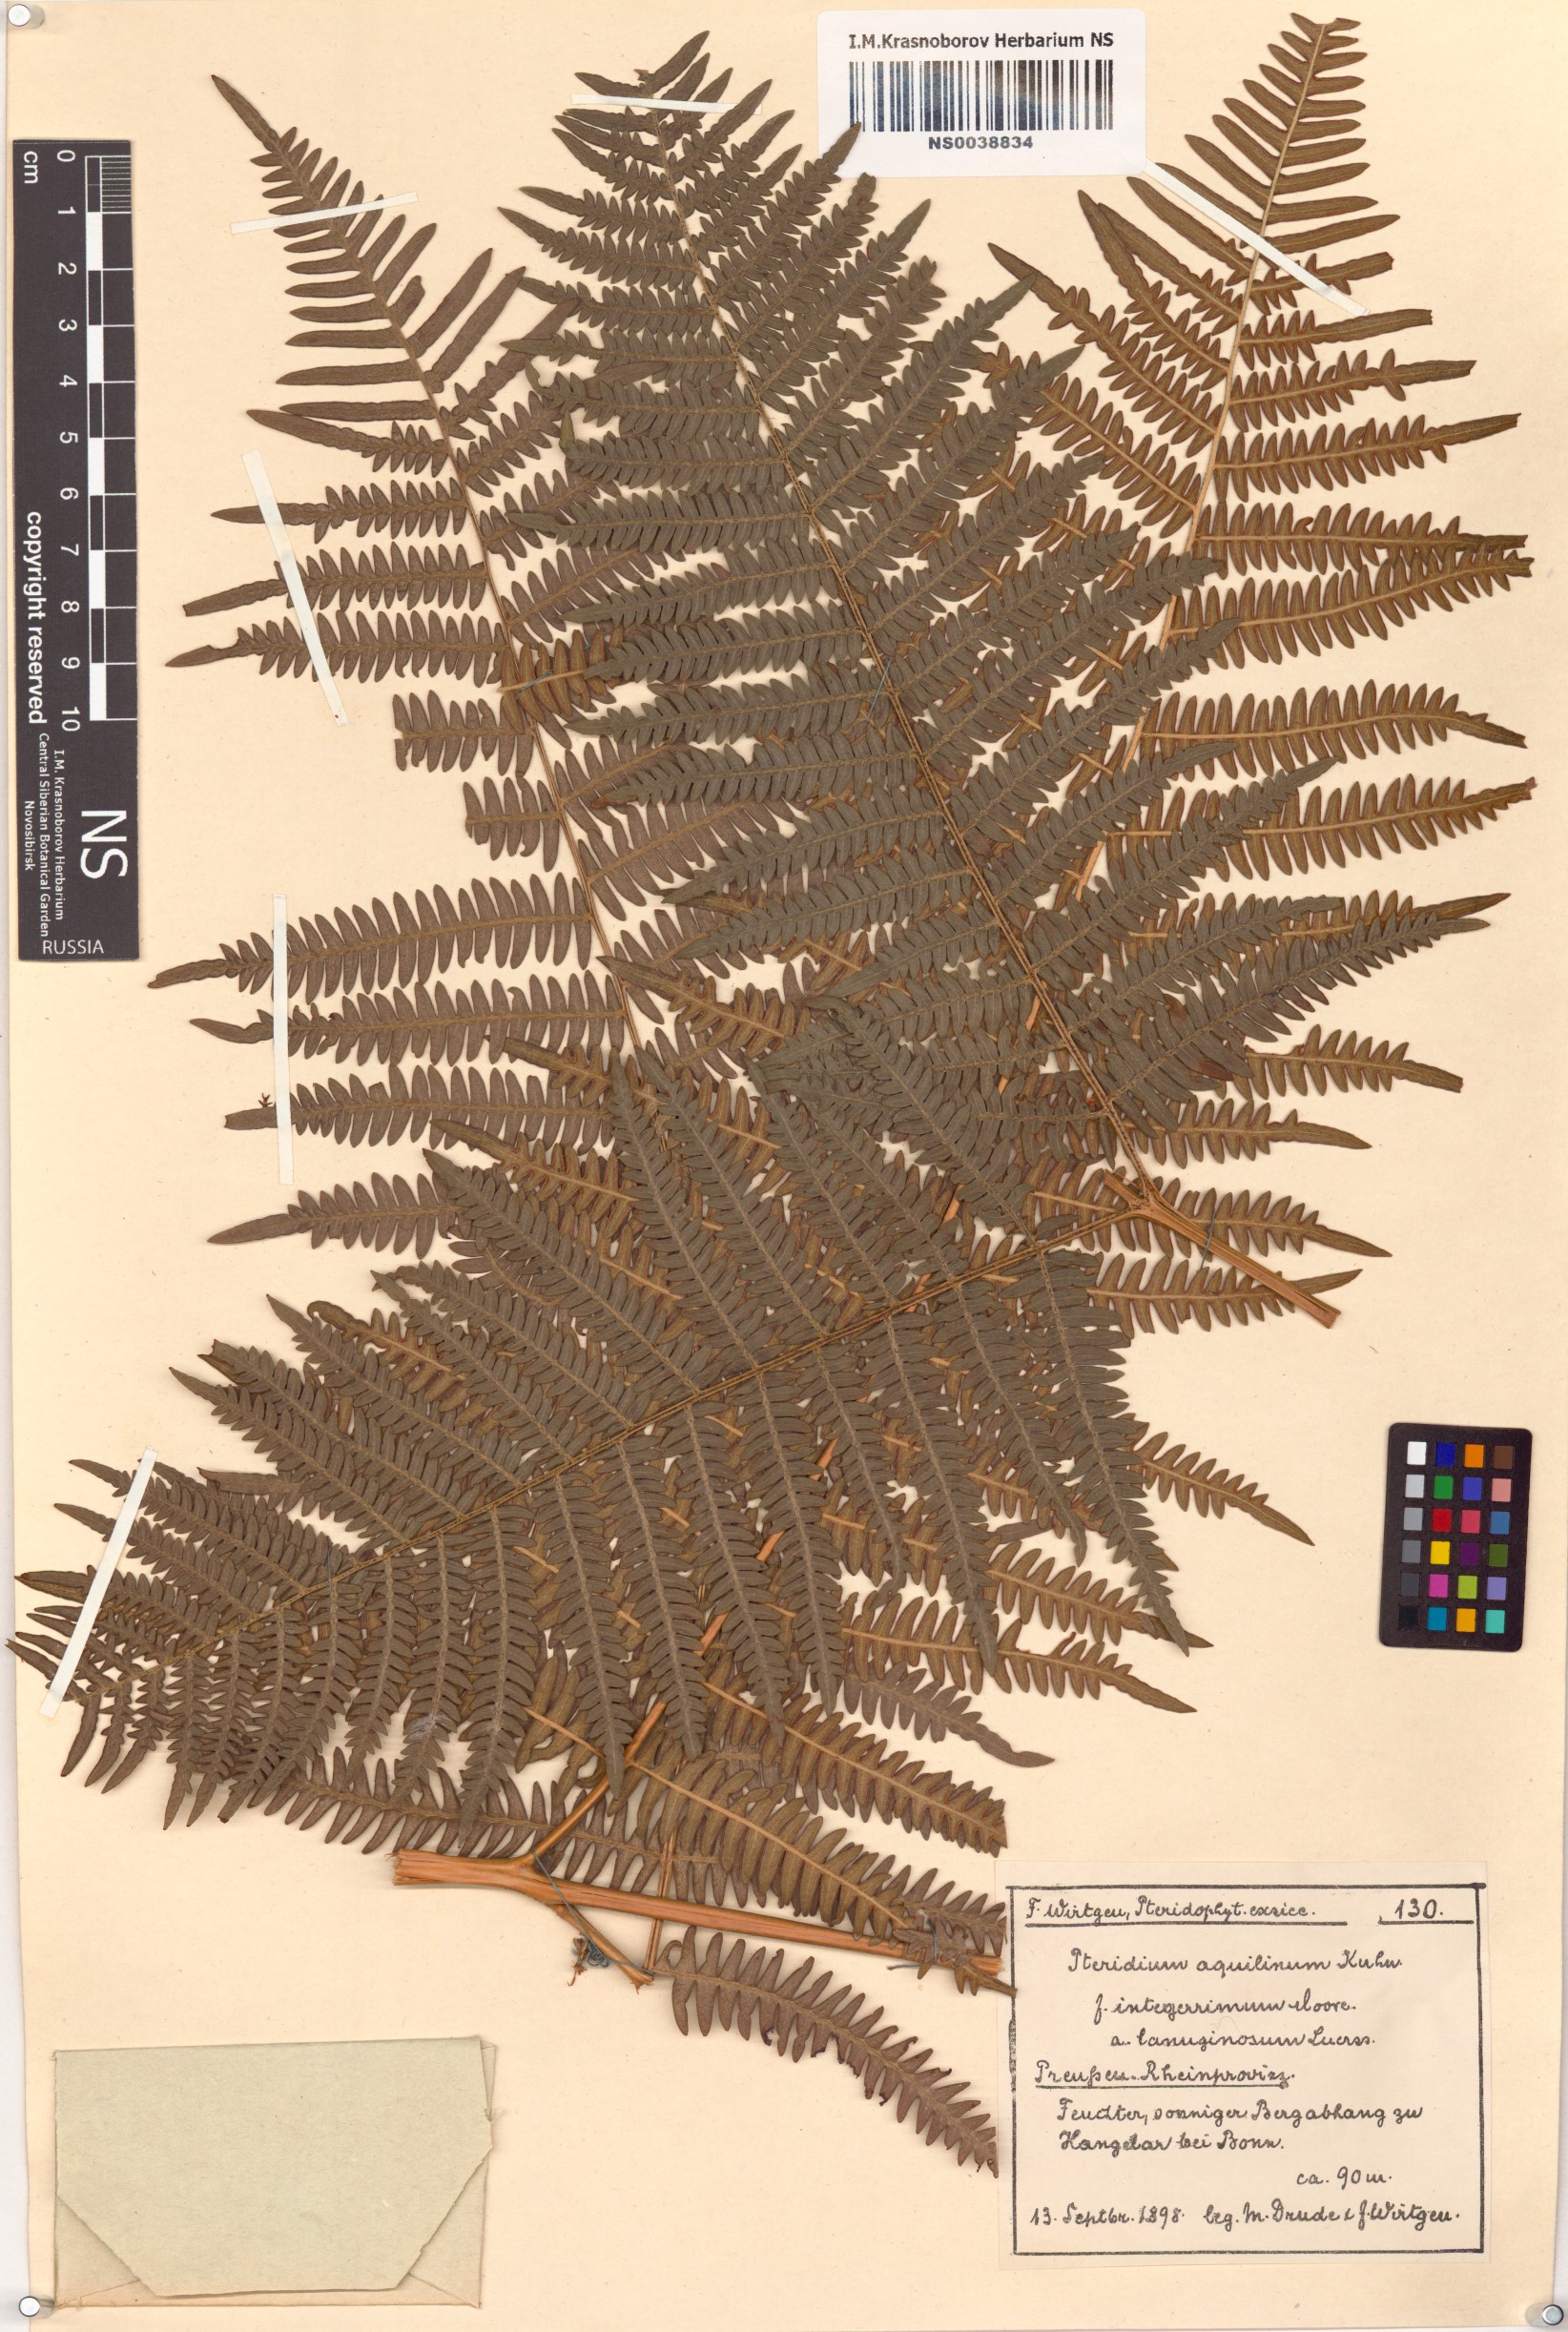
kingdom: Plantae
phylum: Tracheophyta
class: Polypodiopsida
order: Polypodiales
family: Dennstaedtiaceae
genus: Pteridium
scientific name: Pteridium aquilinum
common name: Bracken
